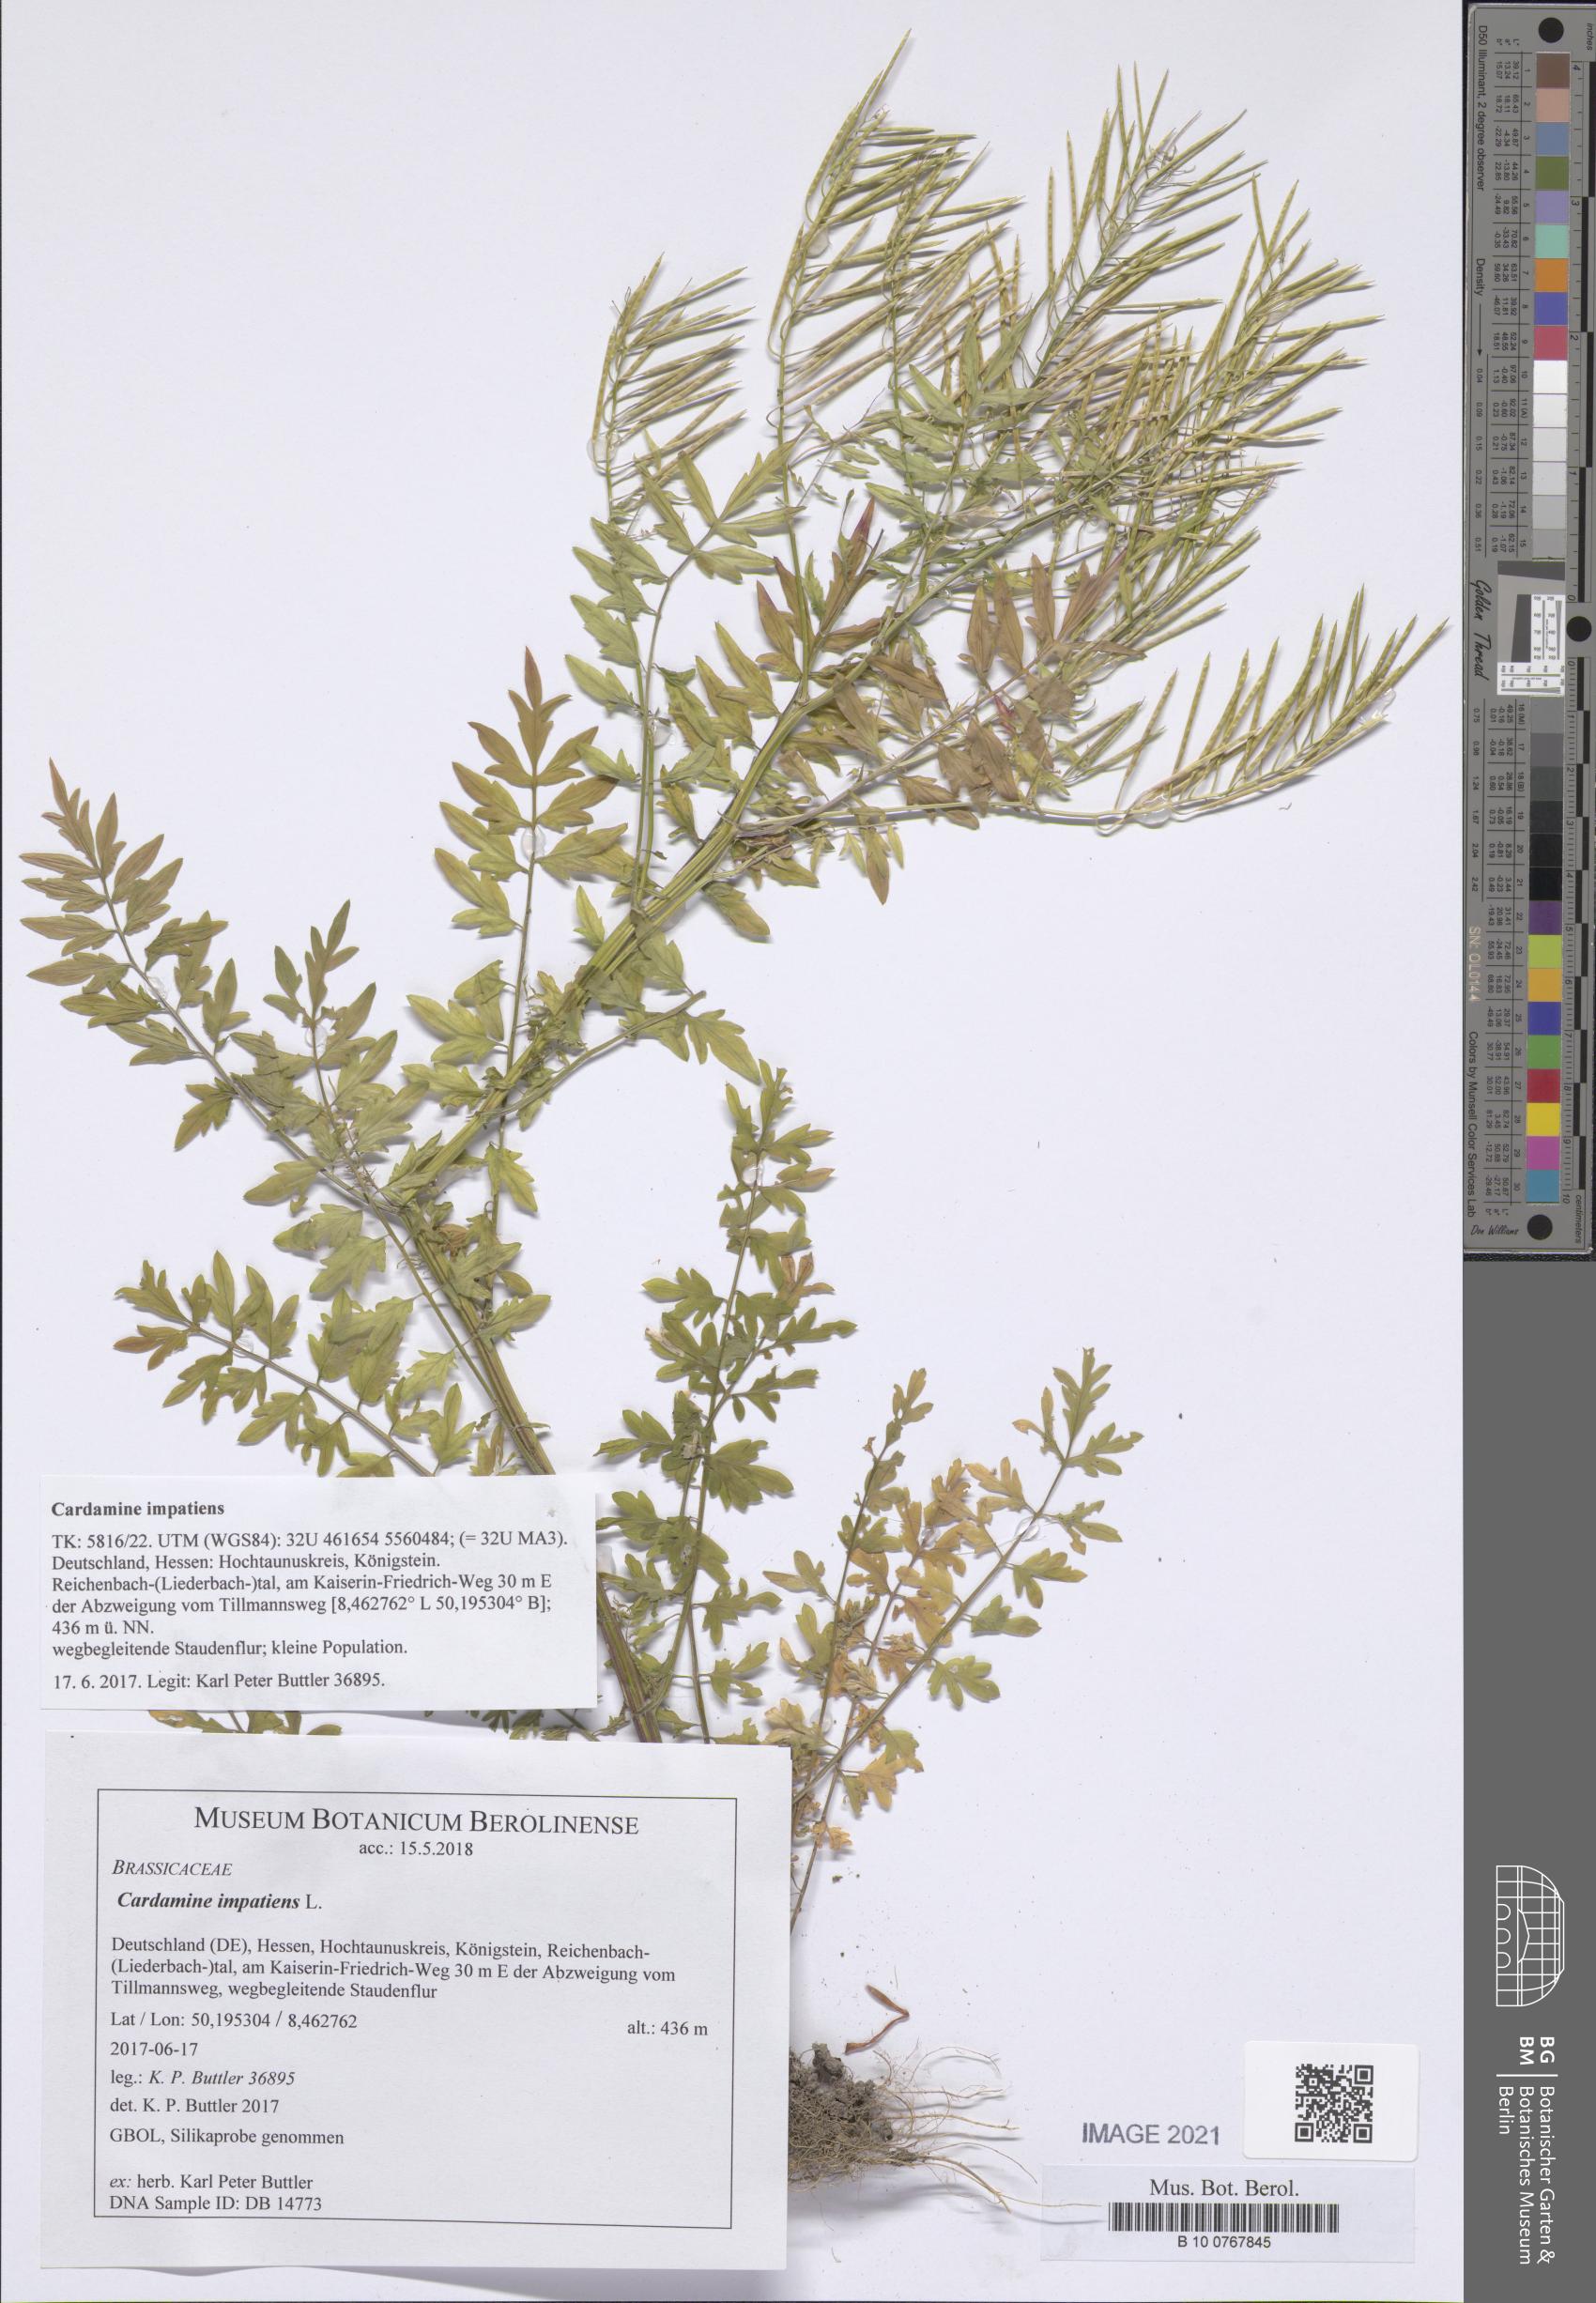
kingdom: Plantae
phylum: Tracheophyta
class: Magnoliopsida
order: Brassicales
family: Brassicaceae
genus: Cardamine
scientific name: Cardamine impatiens
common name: Narrow-leaved bitter-cress
